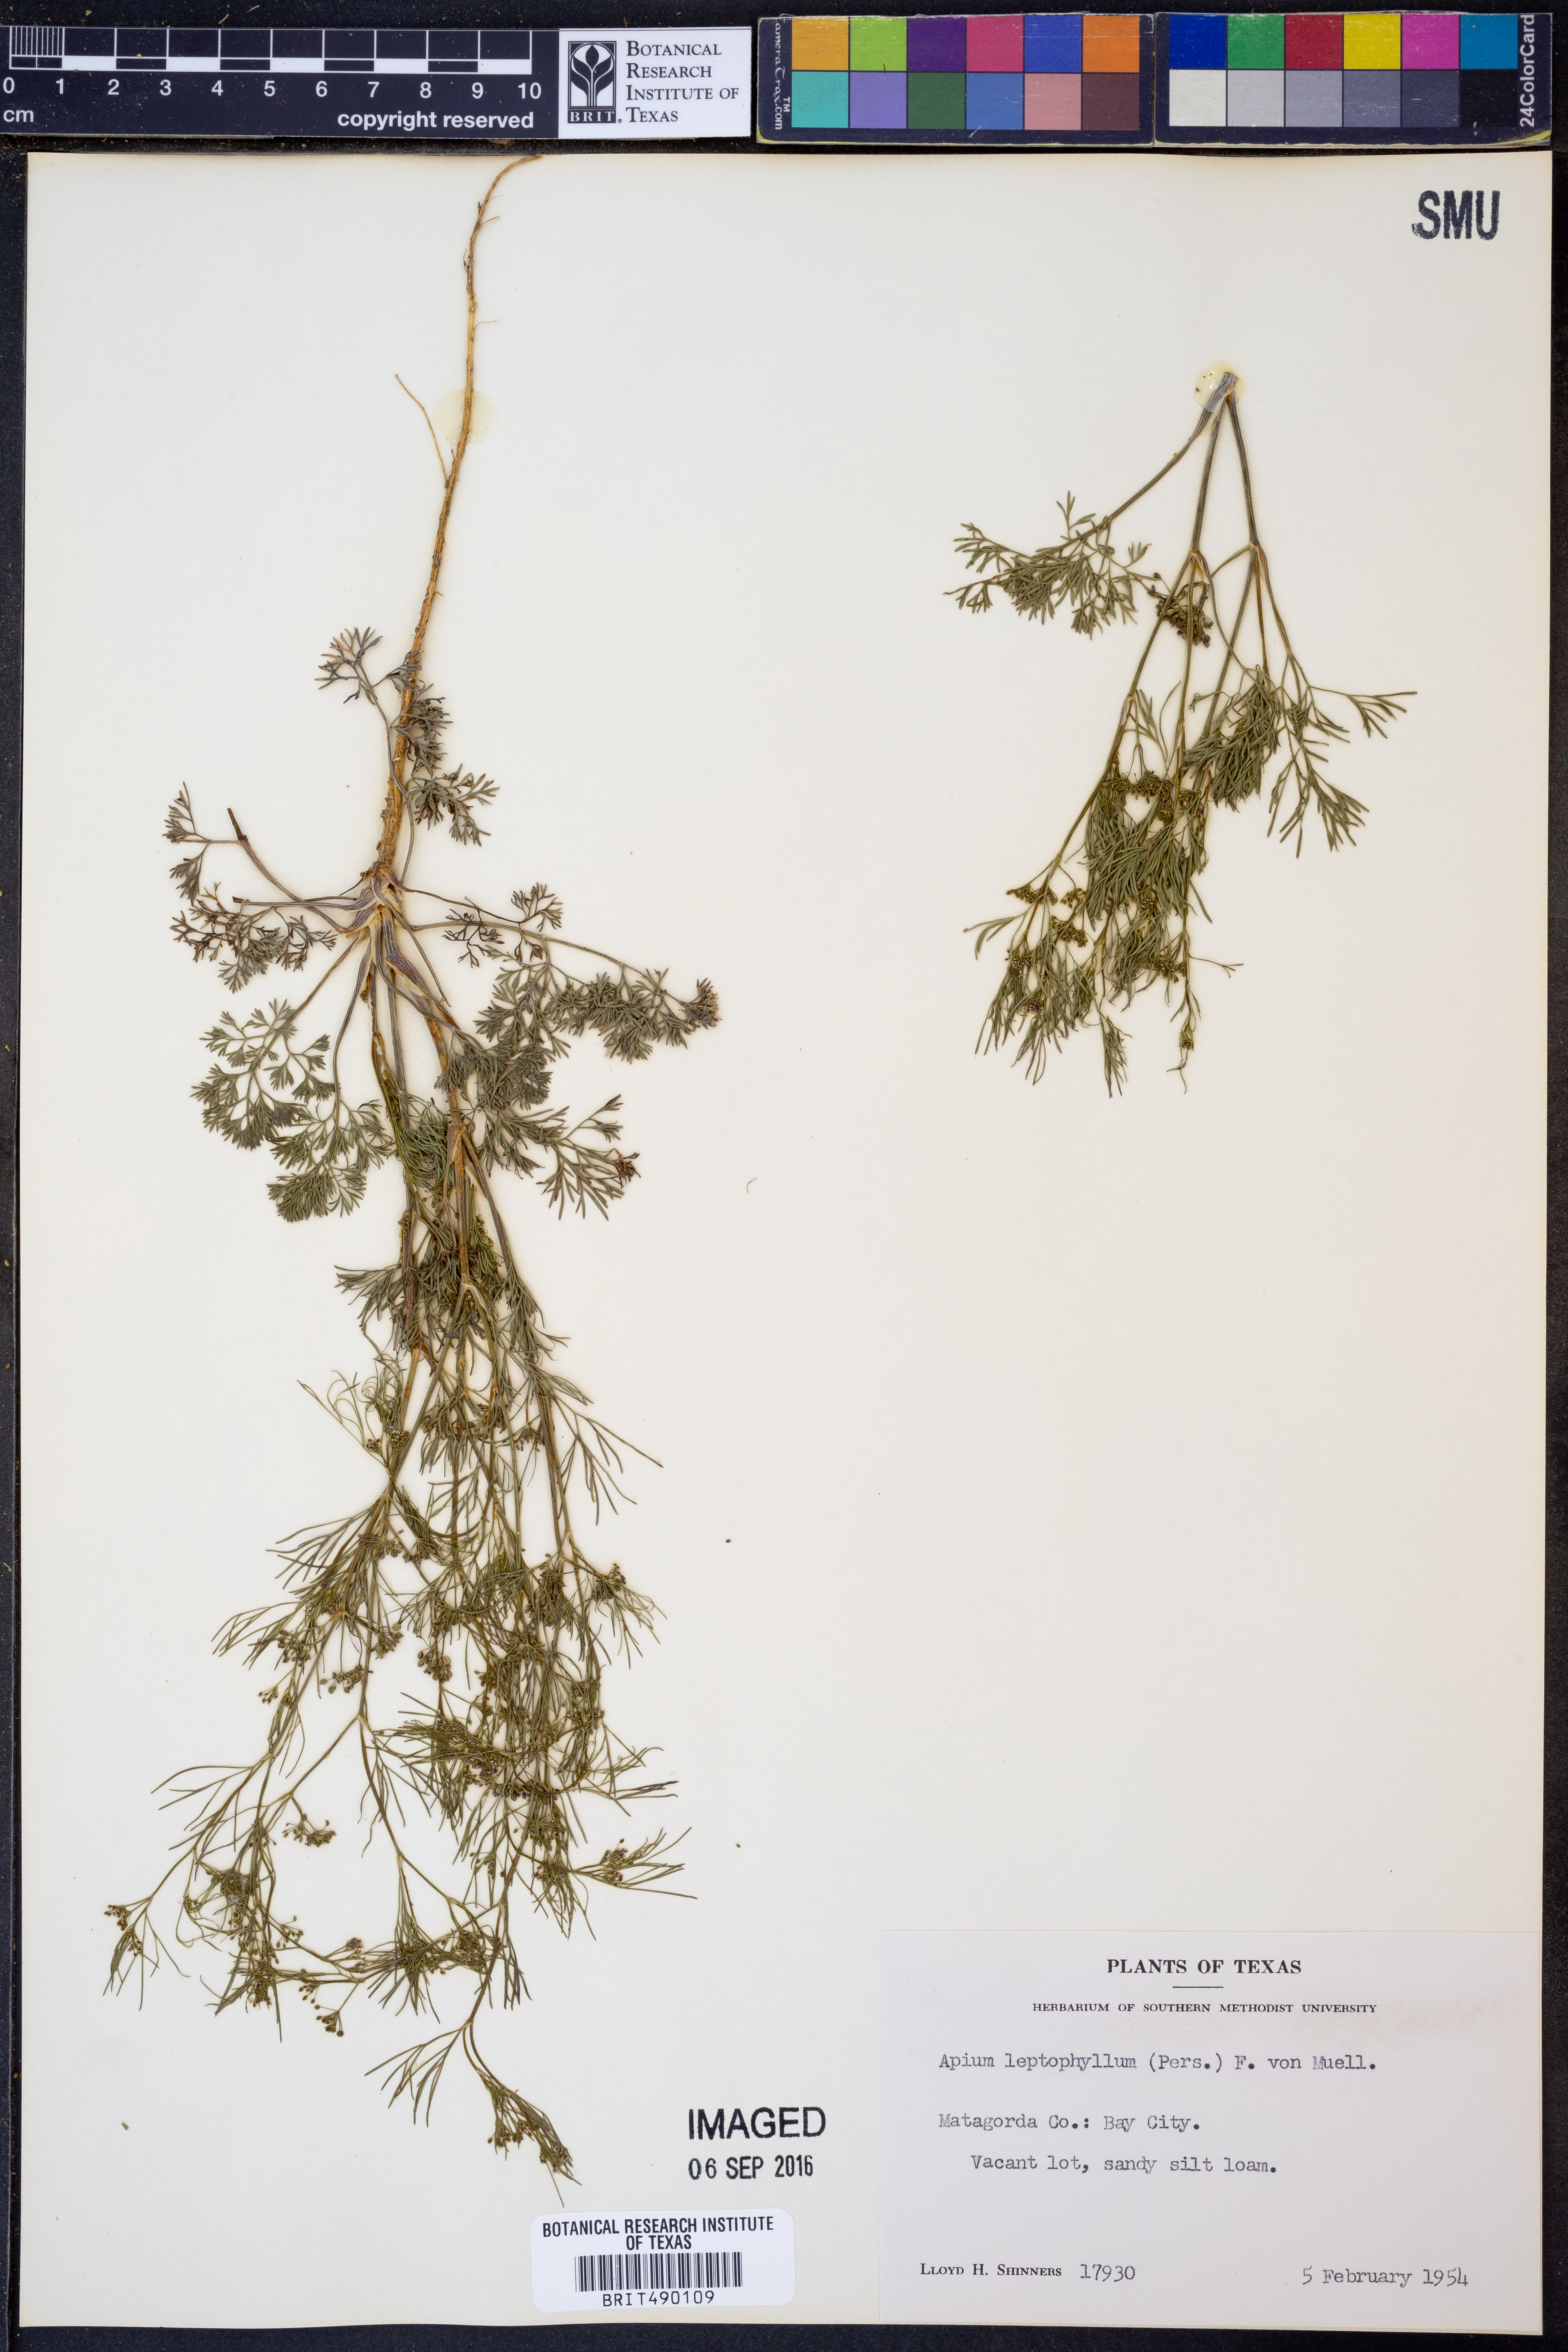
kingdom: Plantae
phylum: Tracheophyta
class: Magnoliopsida
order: Apiales
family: Apiaceae
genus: Cyclospermum
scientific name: Cyclospermum leptophyllum
